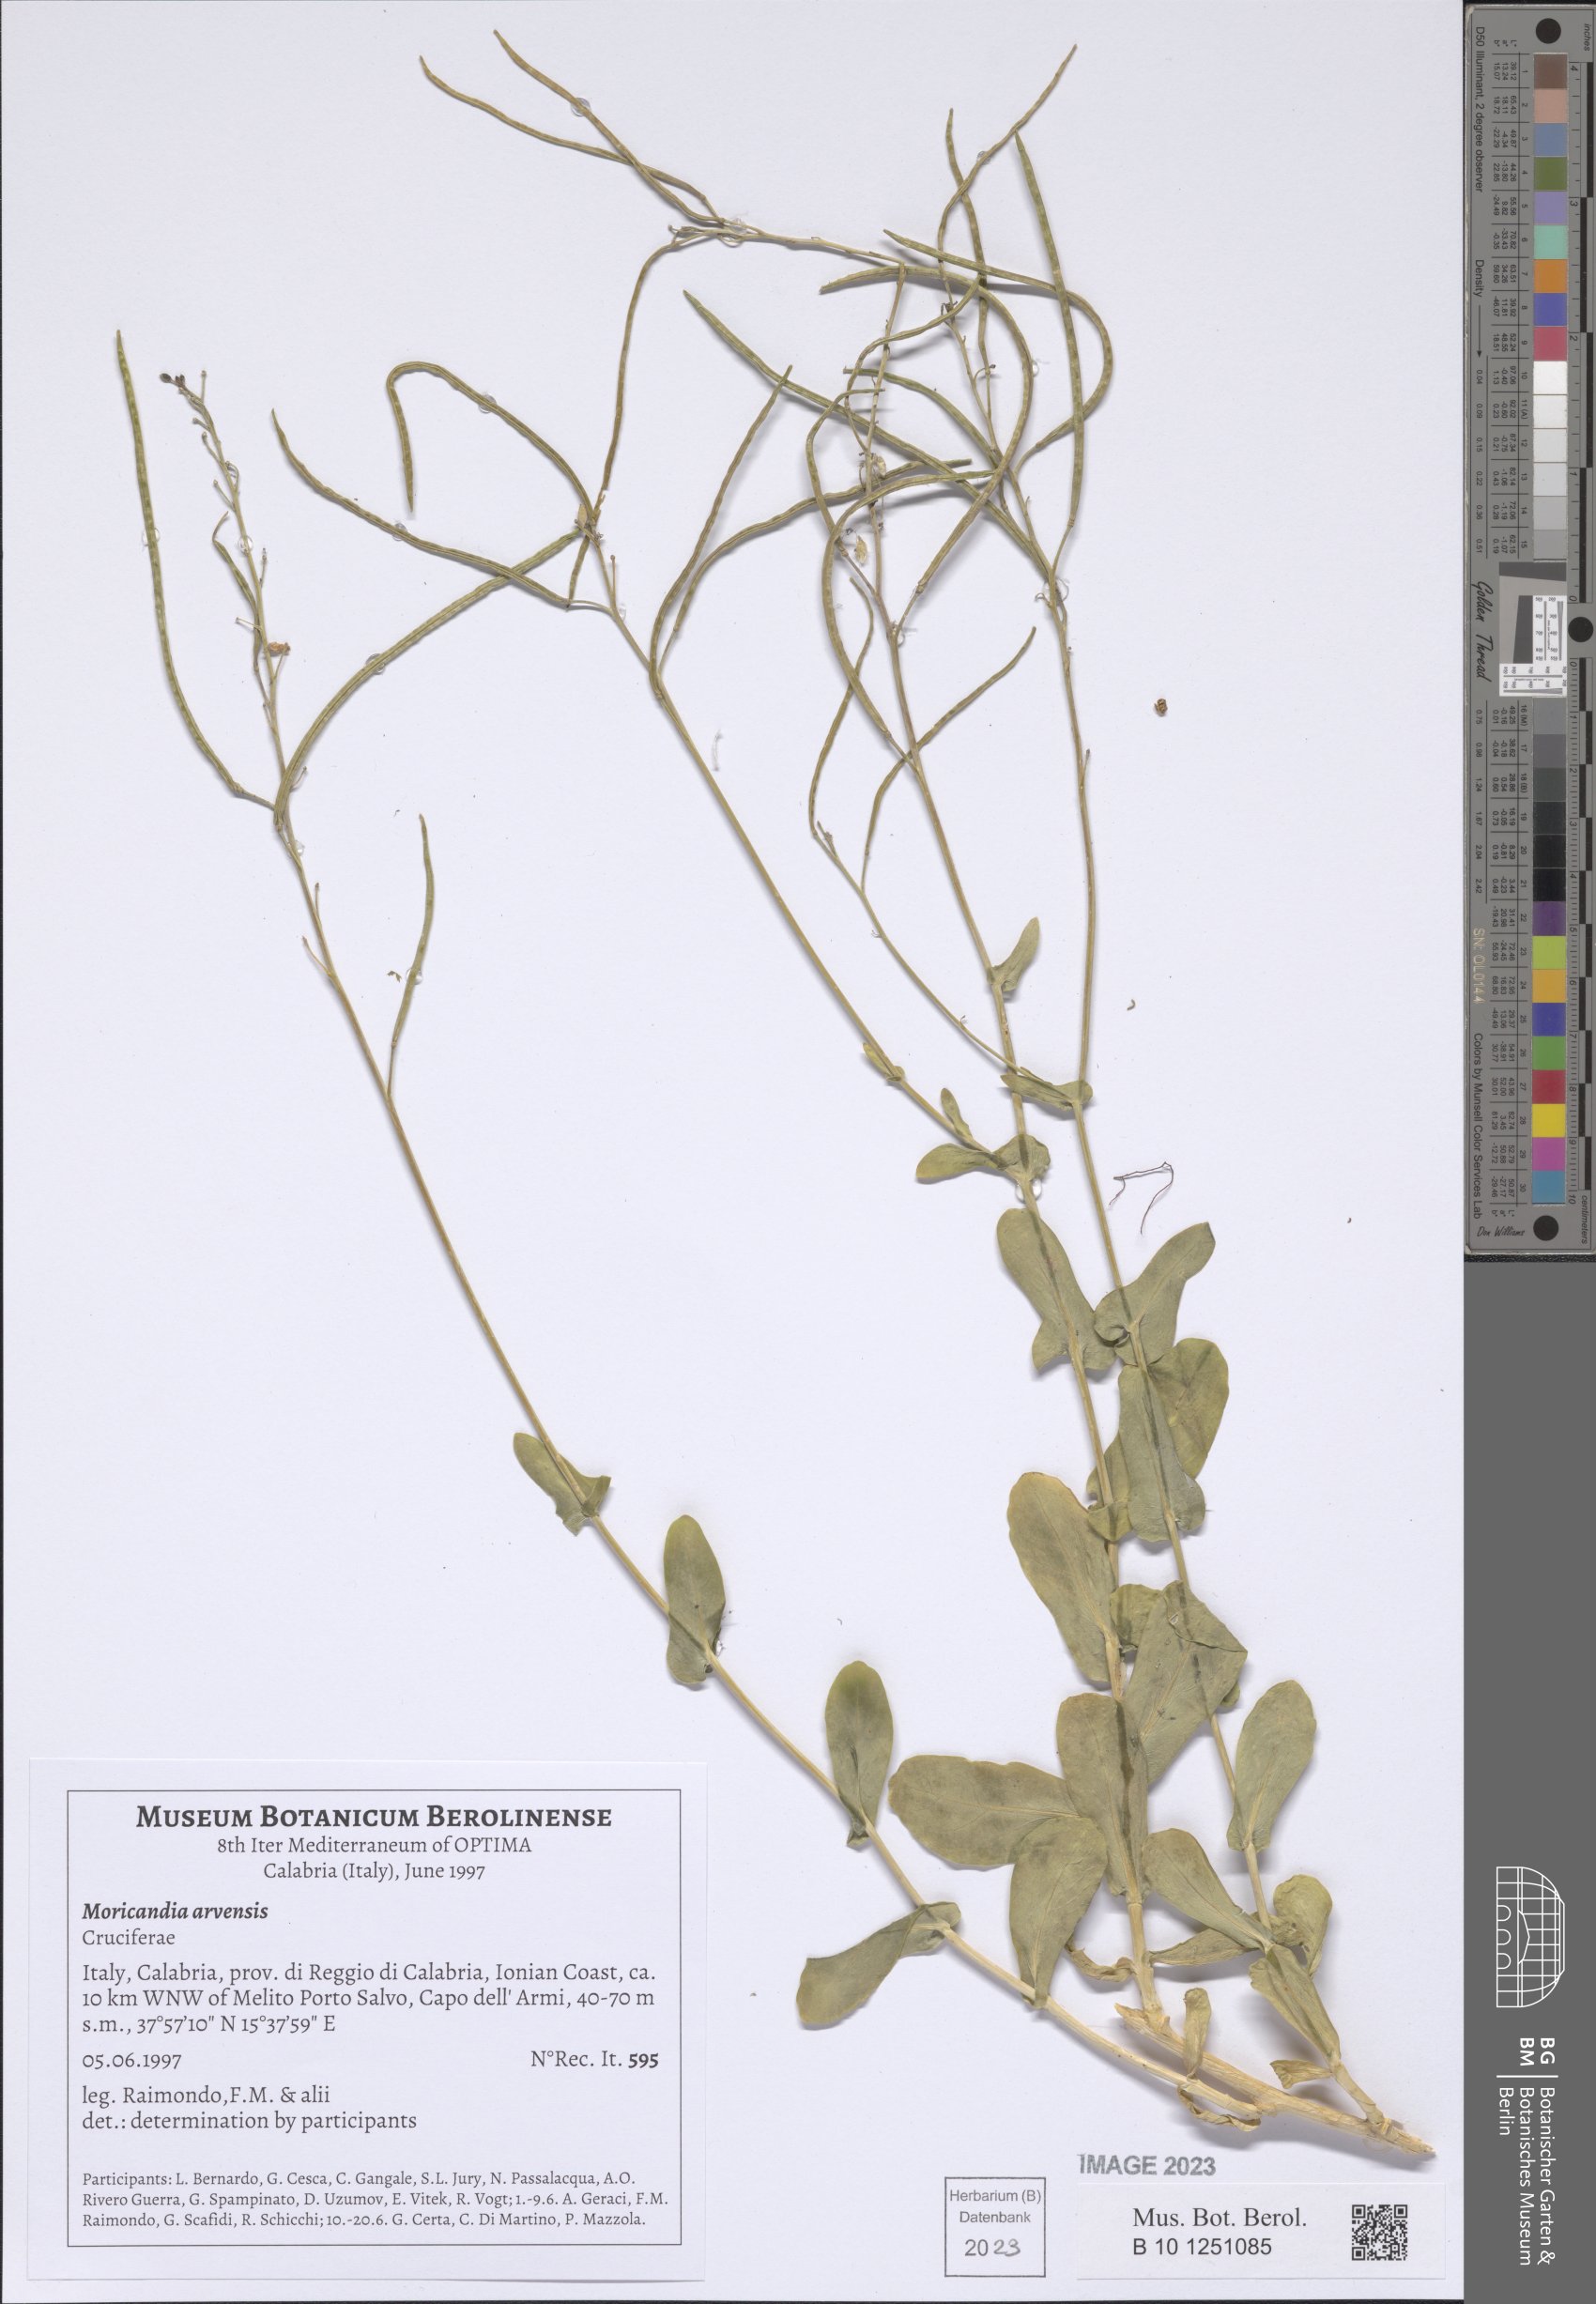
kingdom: Plantae
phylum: Tracheophyta
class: Magnoliopsida
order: Brassicales
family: Brassicaceae
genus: Moricandia
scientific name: Moricandia arvensis
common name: Purple mistress
